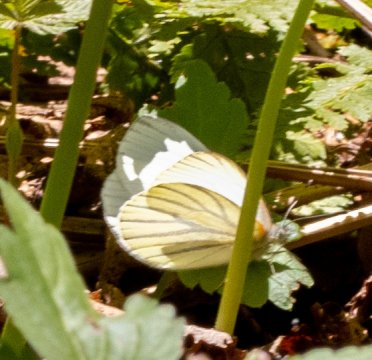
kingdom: Animalia
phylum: Arthropoda
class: Insecta
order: Lepidoptera
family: Pieridae
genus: Pieris
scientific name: Pieris oleracea
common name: Mustard White
